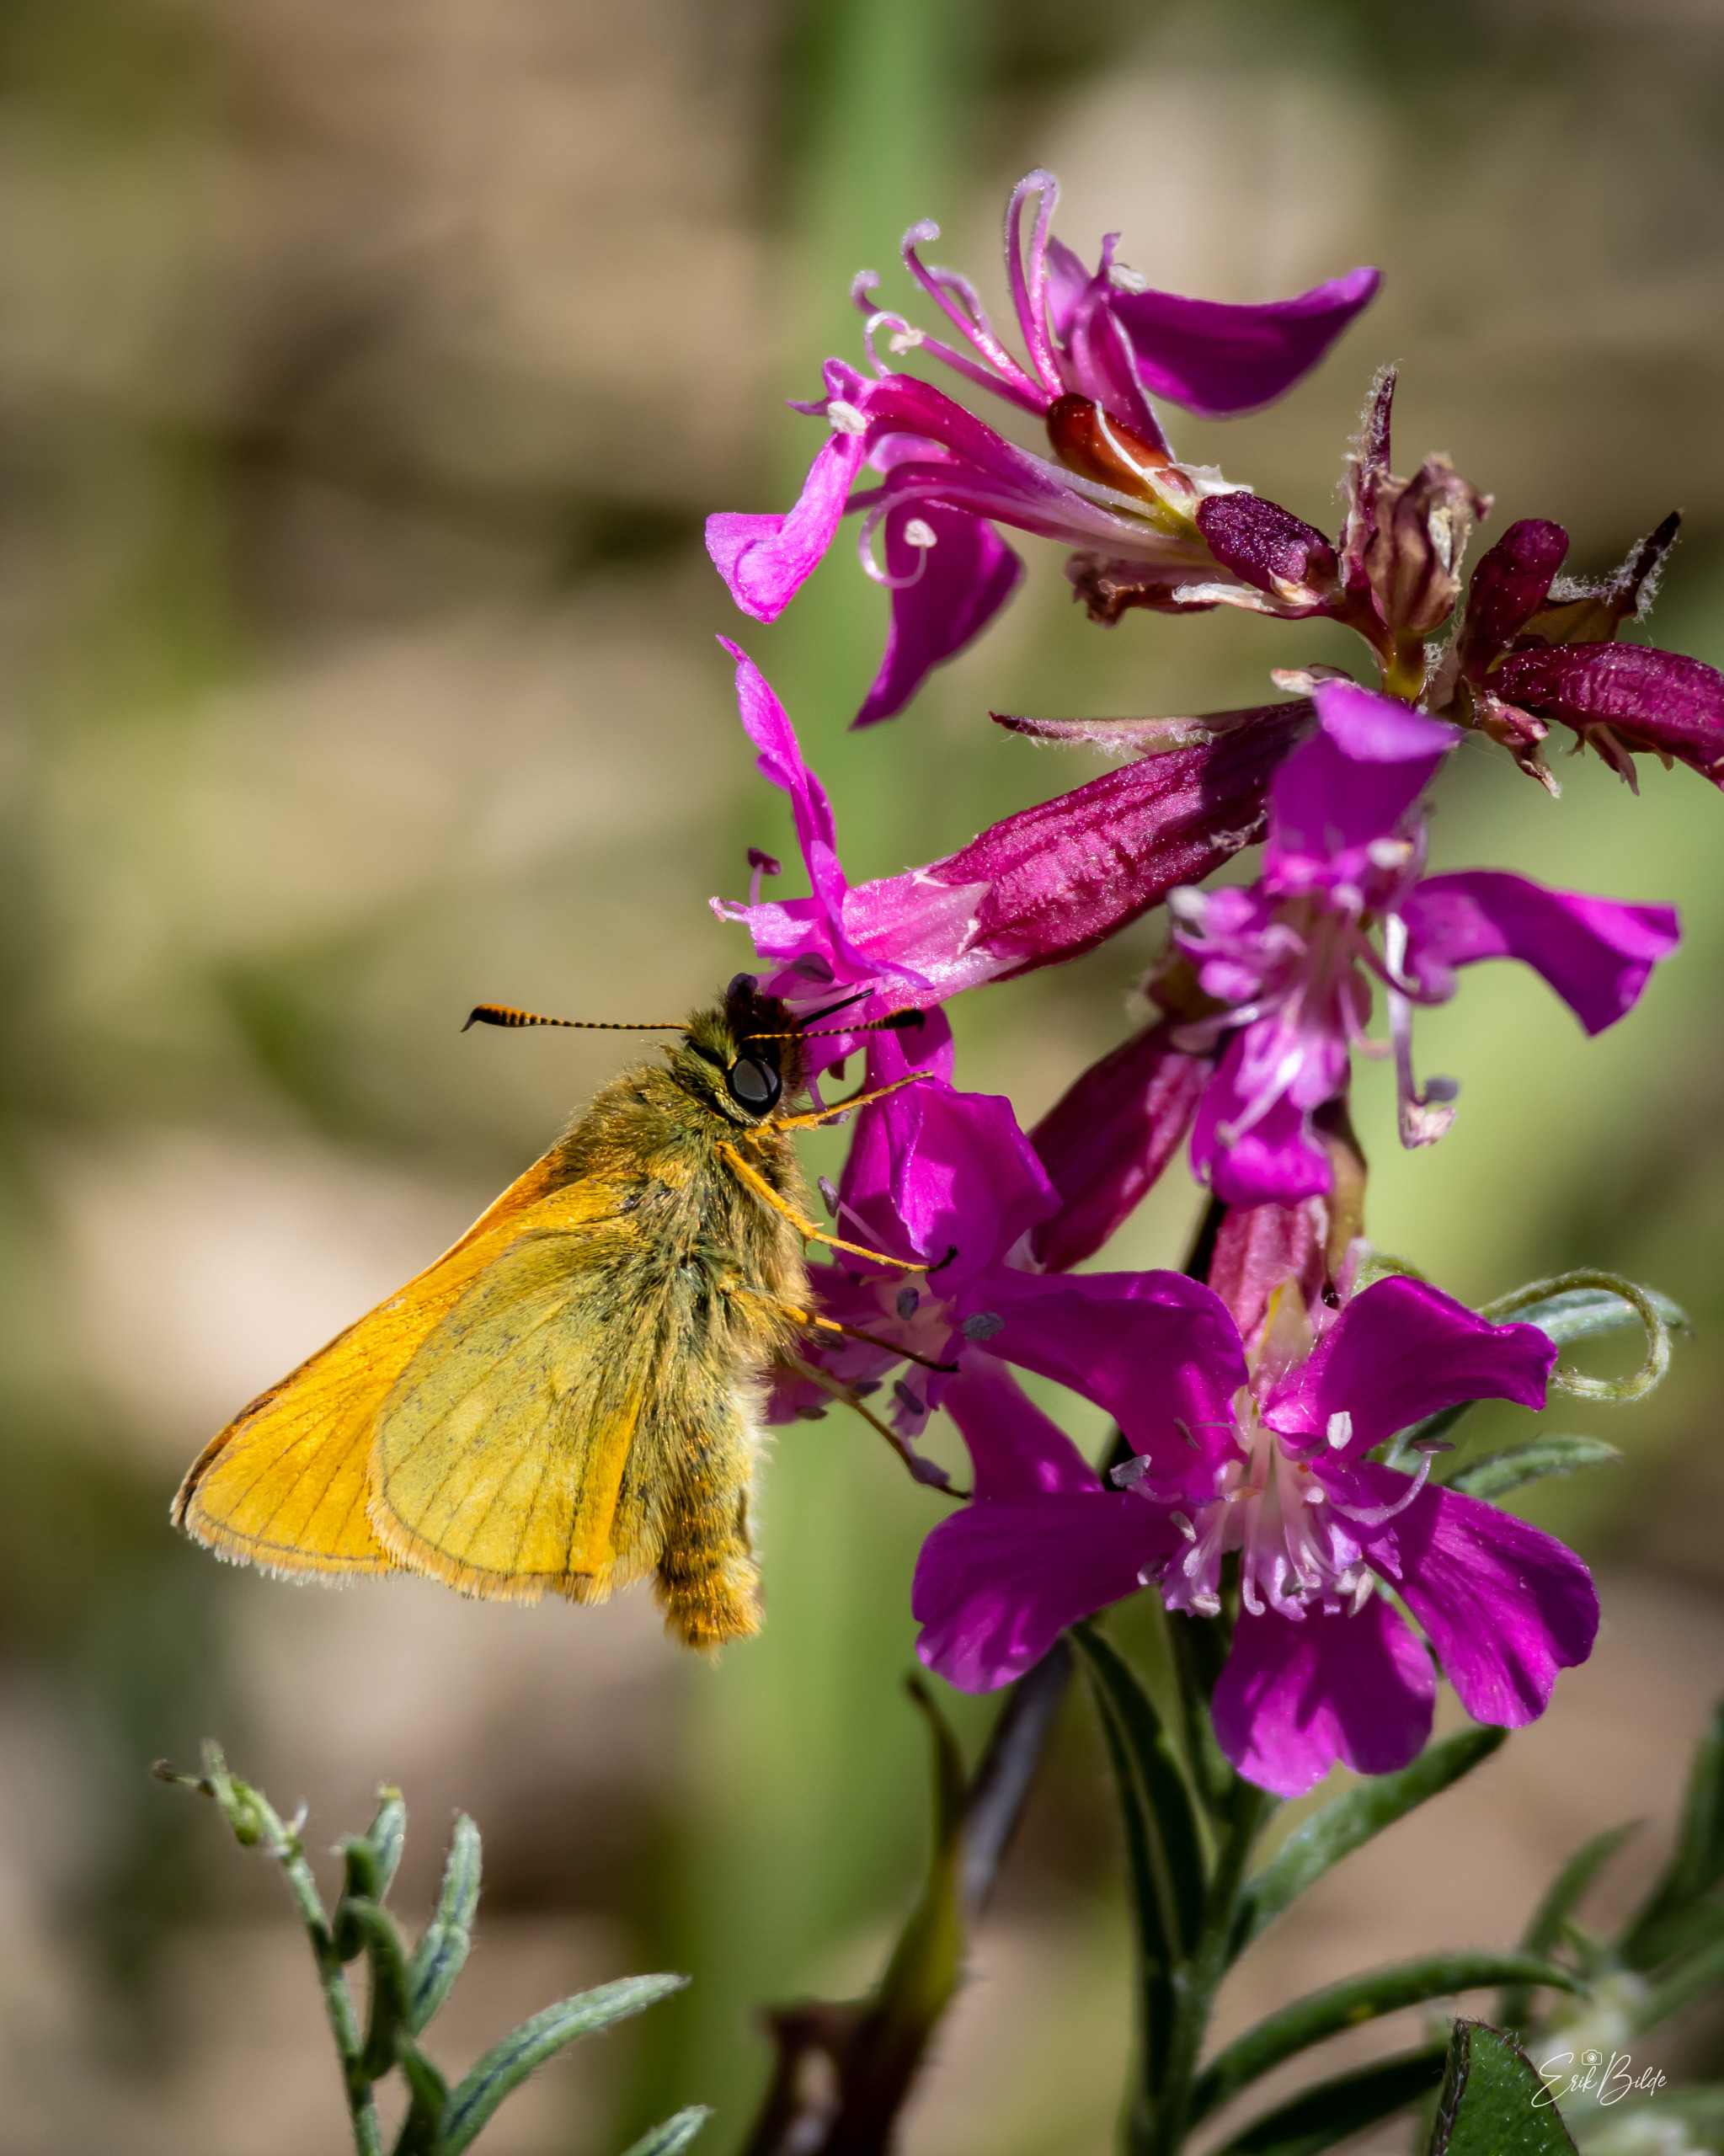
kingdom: Animalia
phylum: Arthropoda
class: Insecta
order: Lepidoptera
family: Hesperiidae
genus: Ochlodes
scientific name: Ochlodes venata
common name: Stor bredpande
